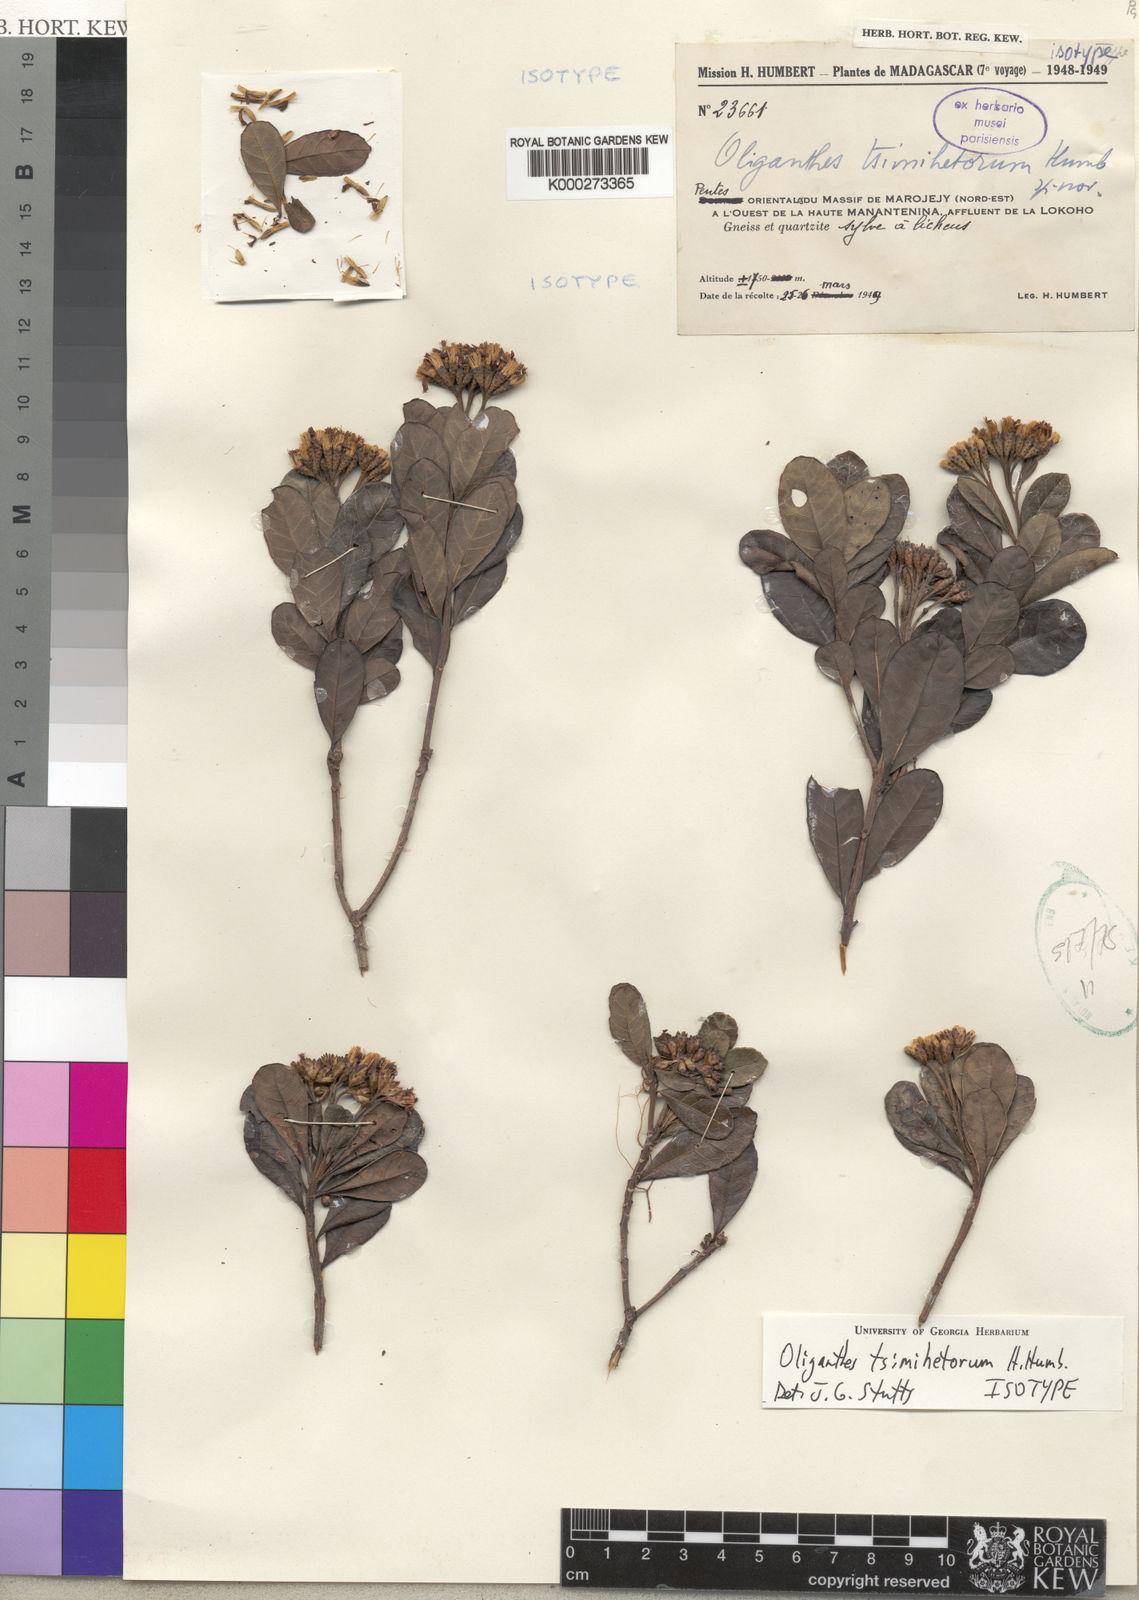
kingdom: Plantae
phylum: Tracheophyta
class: Magnoliopsida
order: Asterales
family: Asteraceae
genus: Oliganthes
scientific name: Oliganthes tsimihetorum
